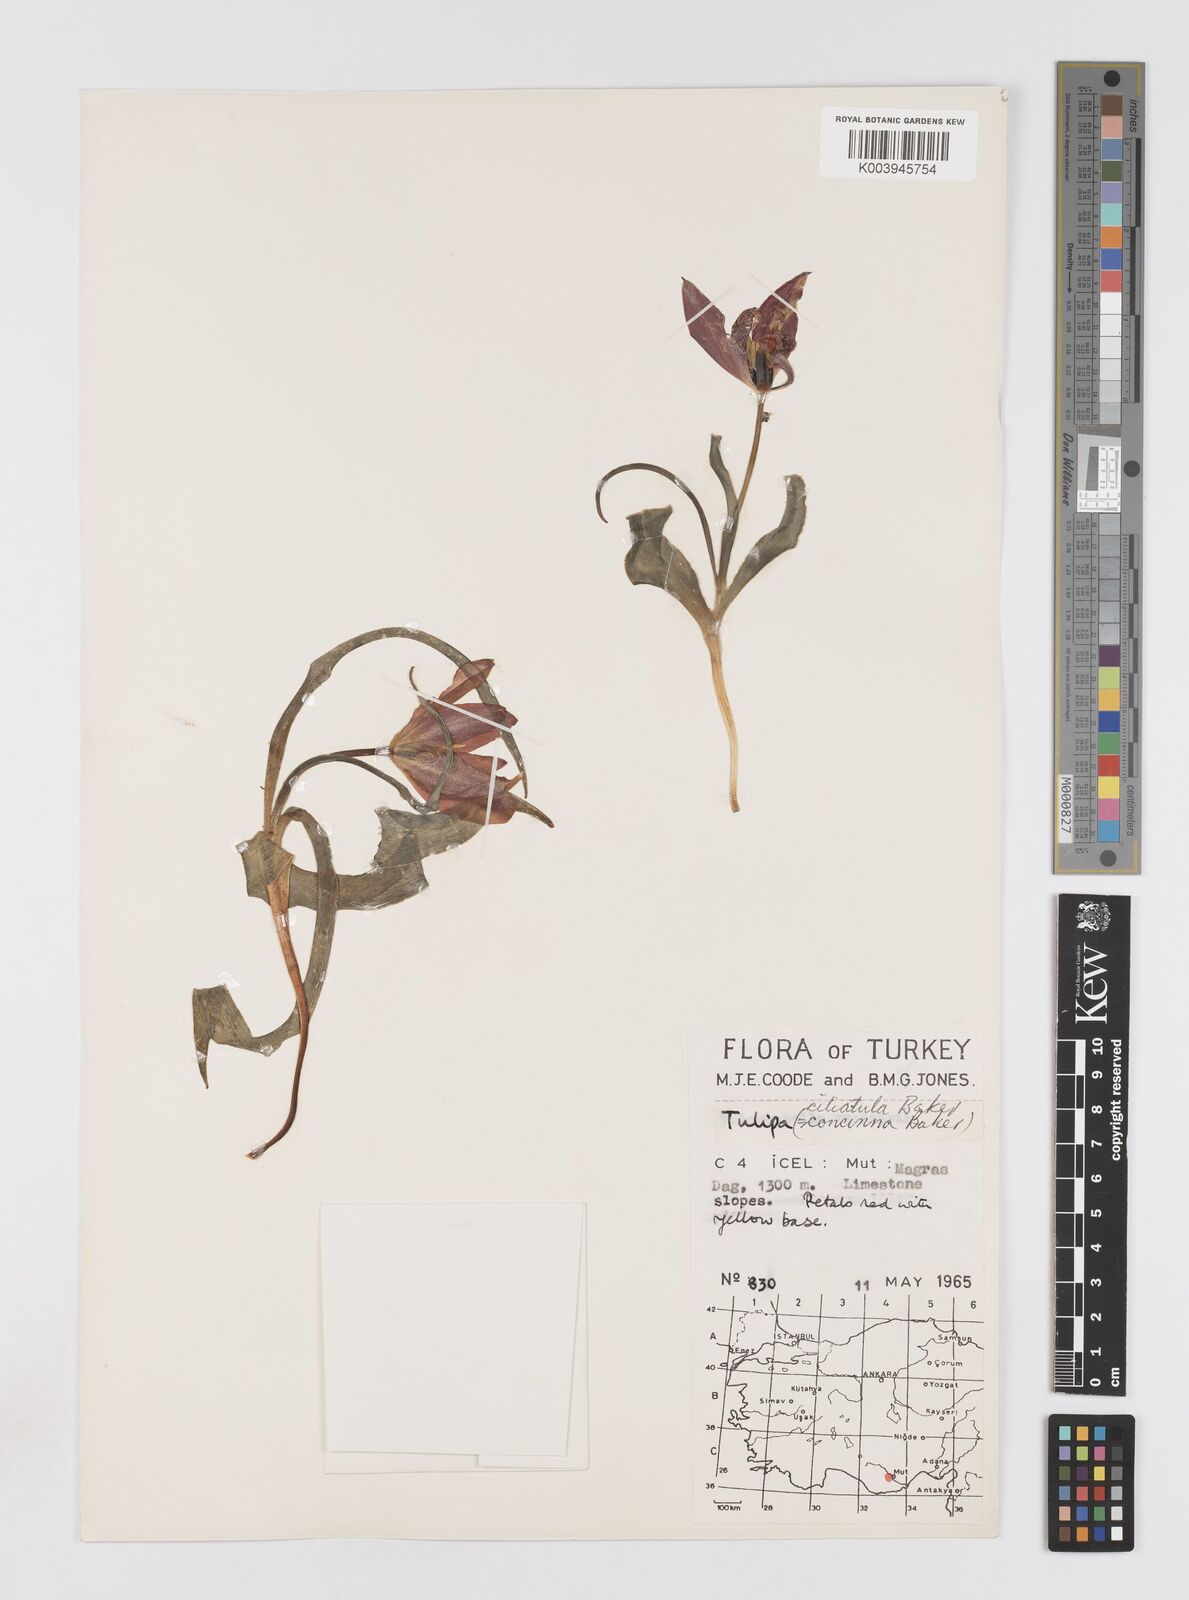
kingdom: Plantae
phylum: Tracheophyta
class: Liliopsida
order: Liliales
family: Liliaceae
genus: Tulipa
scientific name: Tulipa armena
